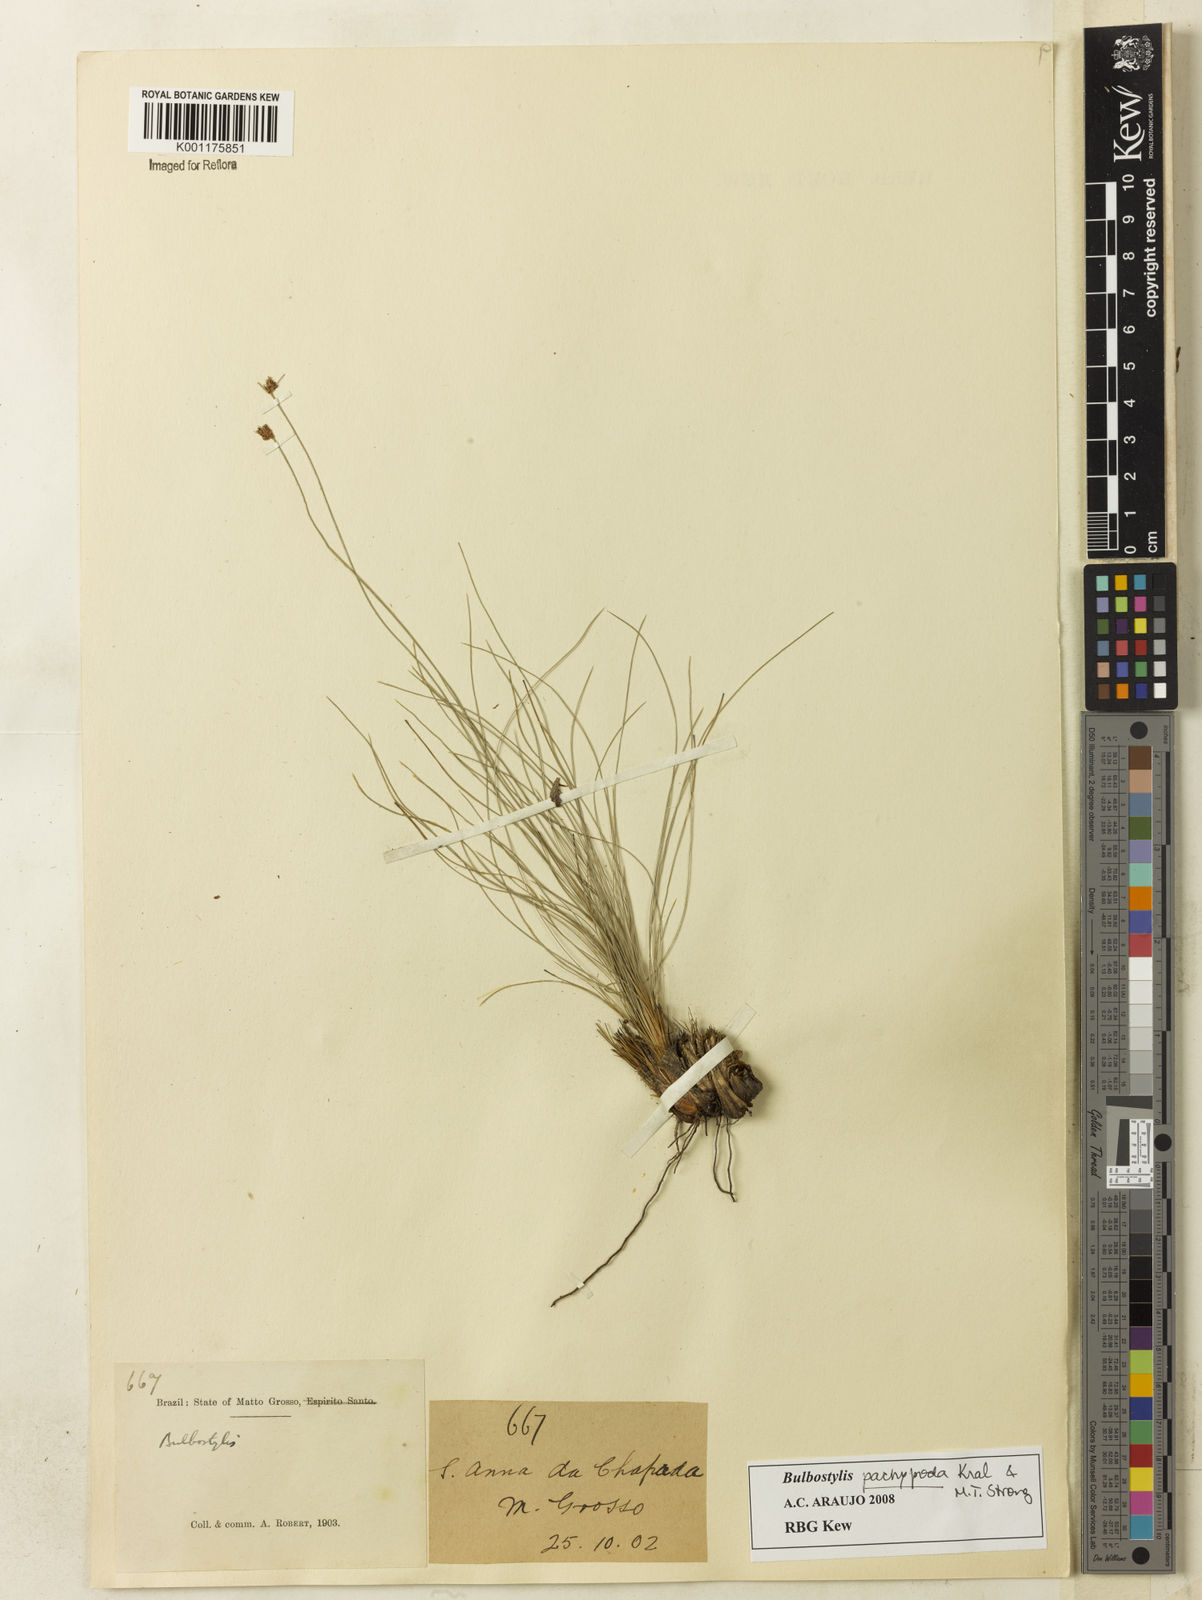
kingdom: Plantae
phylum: Tracheophyta
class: Liliopsida
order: Poales
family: Cyperaceae
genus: Bulbostylis
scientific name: Bulbostylis pachypoda
